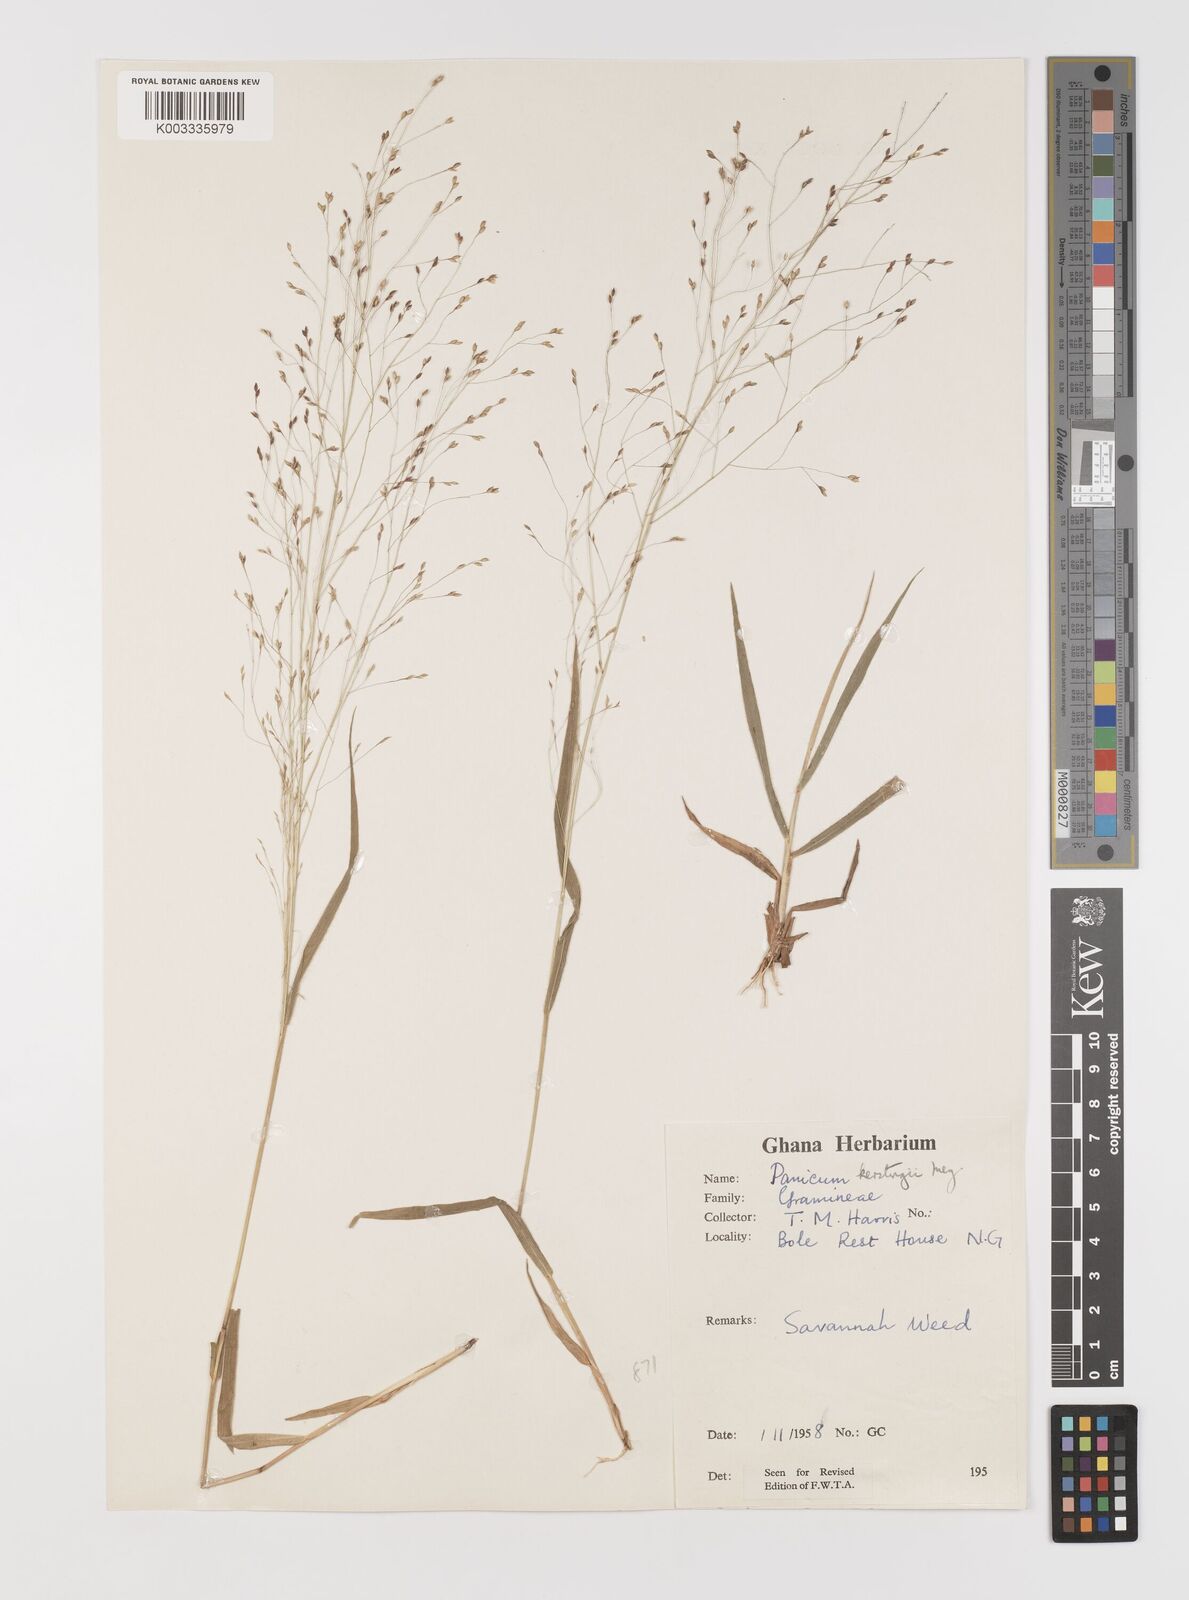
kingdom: Plantae
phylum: Tracheophyta
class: Liliopsida
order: Poales
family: Poaceae
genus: Panicum
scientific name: Panicum pansum
